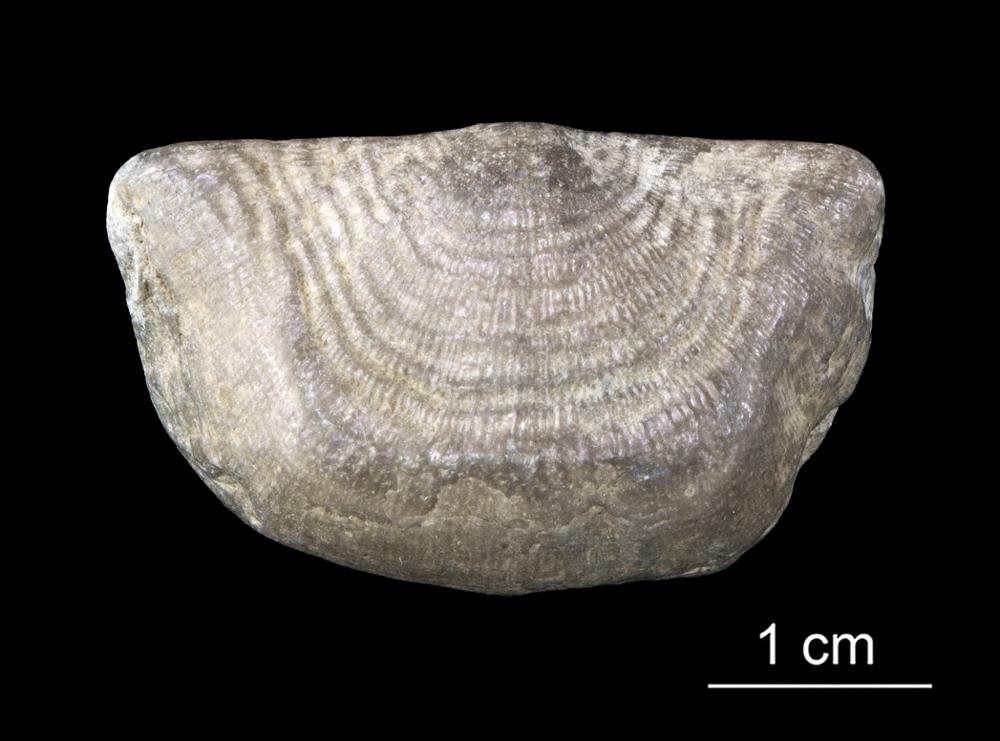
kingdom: Animalia
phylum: Brachiopoda
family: Strophomenidae
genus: Leptaena
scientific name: Leptaena Strophomena rhomboidalis
